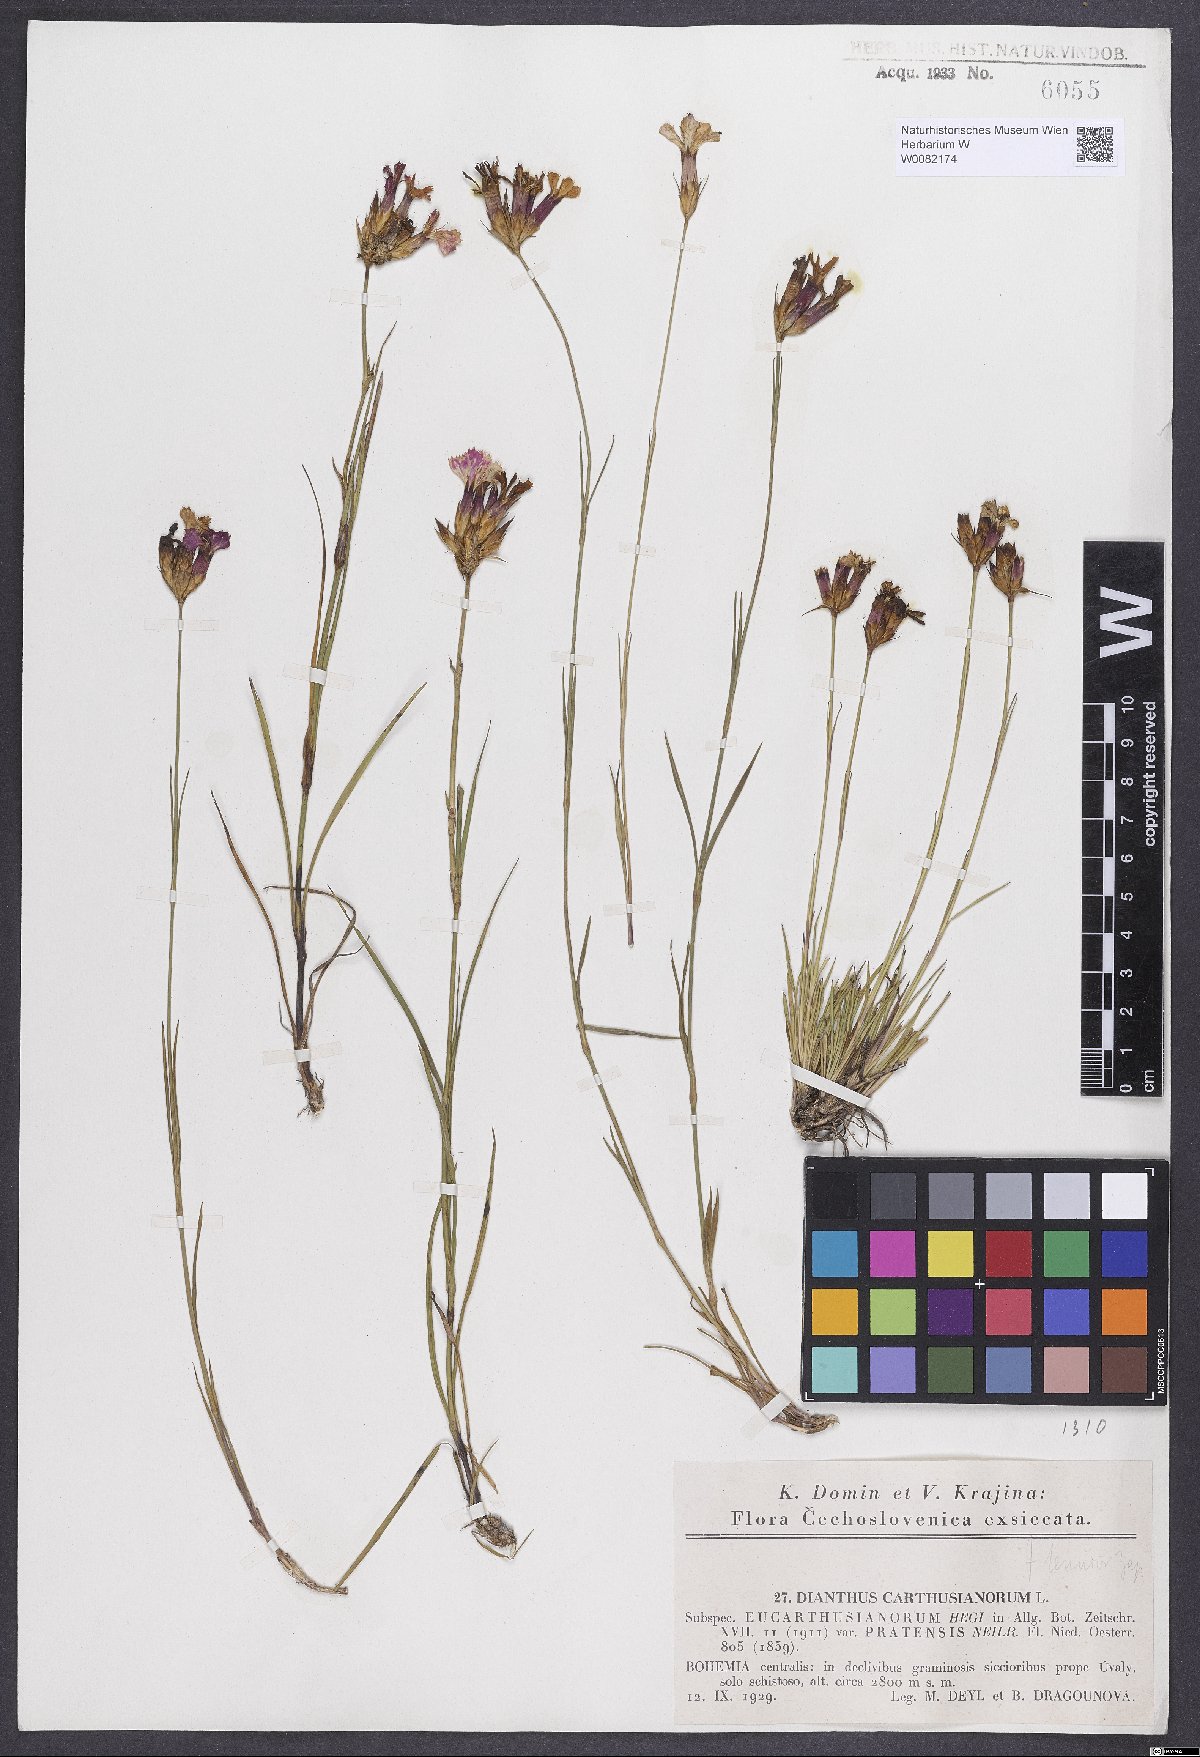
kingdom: Plantae
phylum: Tracheophyta
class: Magnoliopsida
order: Caryophyllales
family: Caryophyllaceae
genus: Dianthus
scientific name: Dianthus carthusianorum
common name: Carthusian pink
